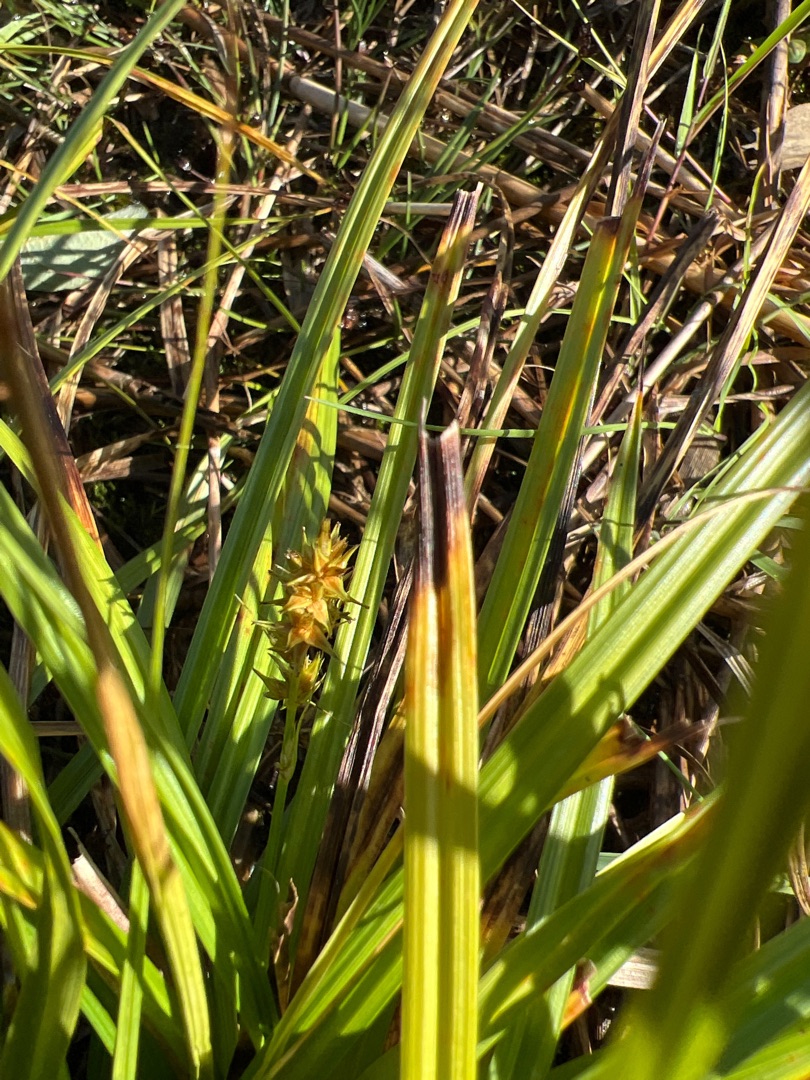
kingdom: Plantae
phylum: Tracheophyta
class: Liliopsida
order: Poales
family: Cyperaceae
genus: Carex
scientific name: Carex otrubae
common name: Sylt-star
